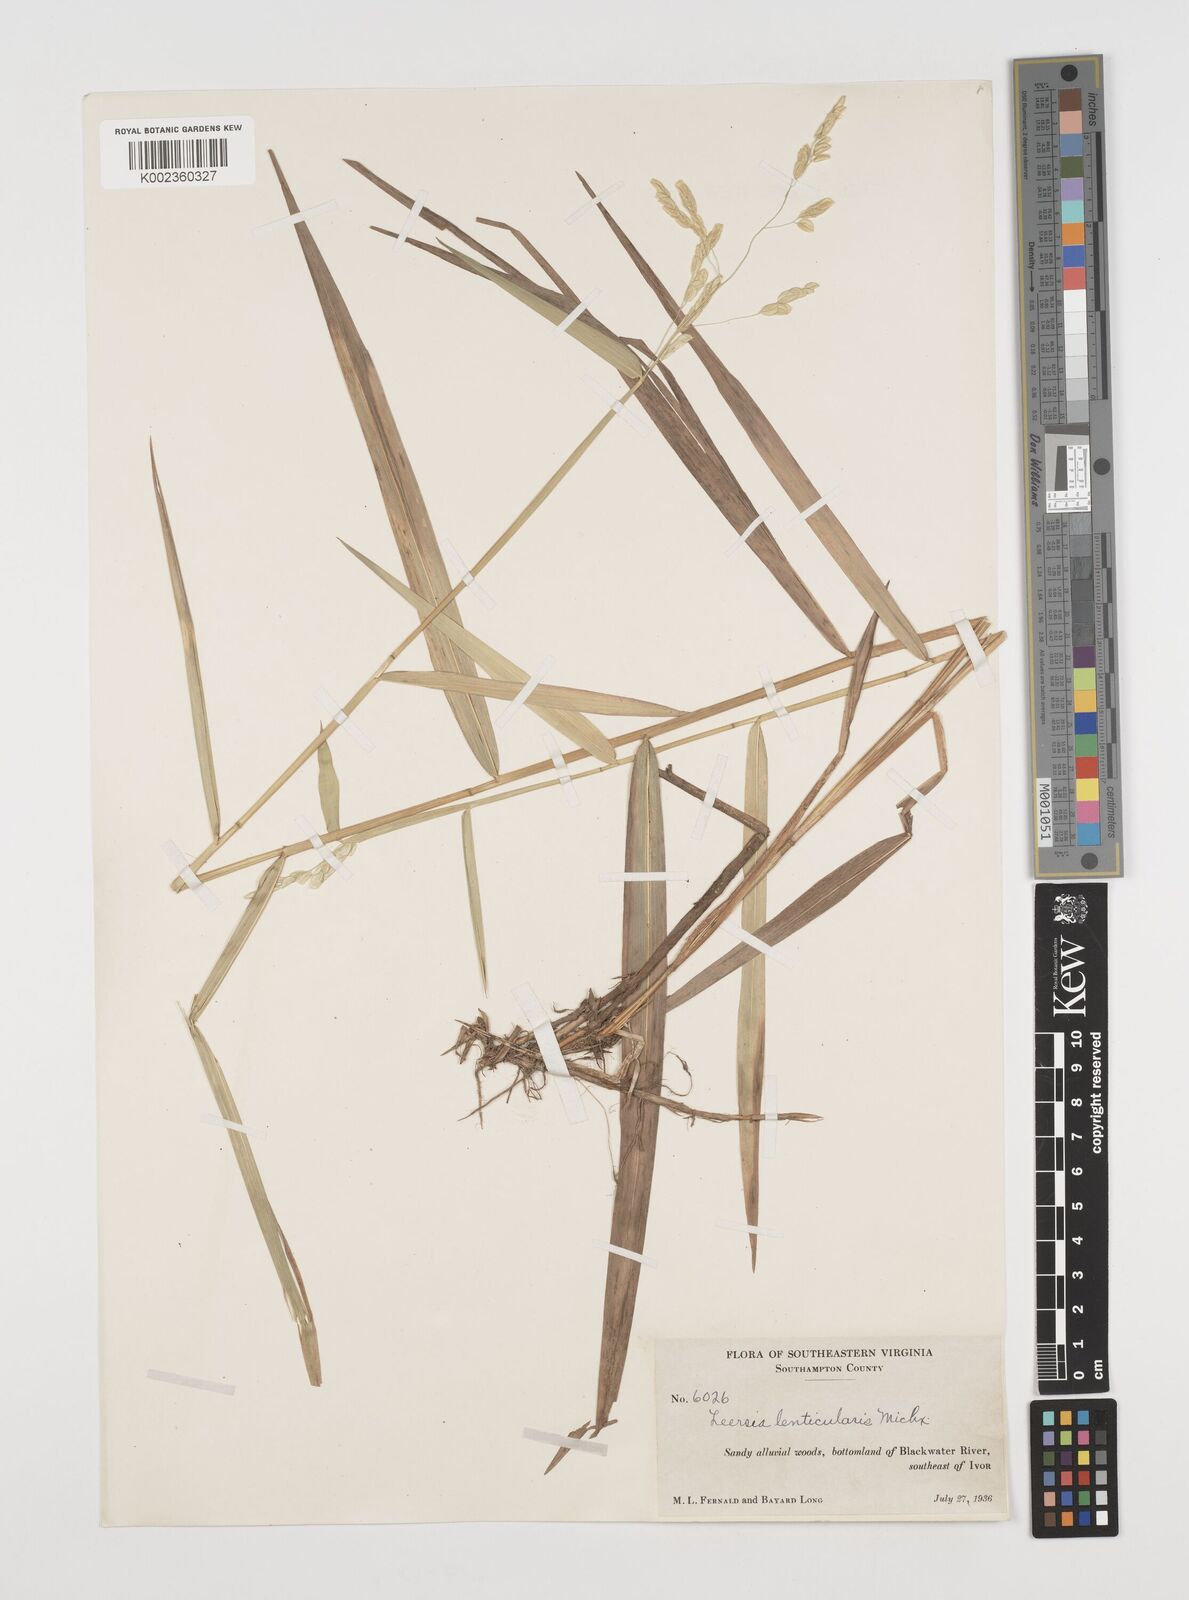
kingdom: Plantae
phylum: Tracheophyta
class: Liliopsida
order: Poales
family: Poaceae
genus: Leersia
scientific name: Leersia lenticularis
